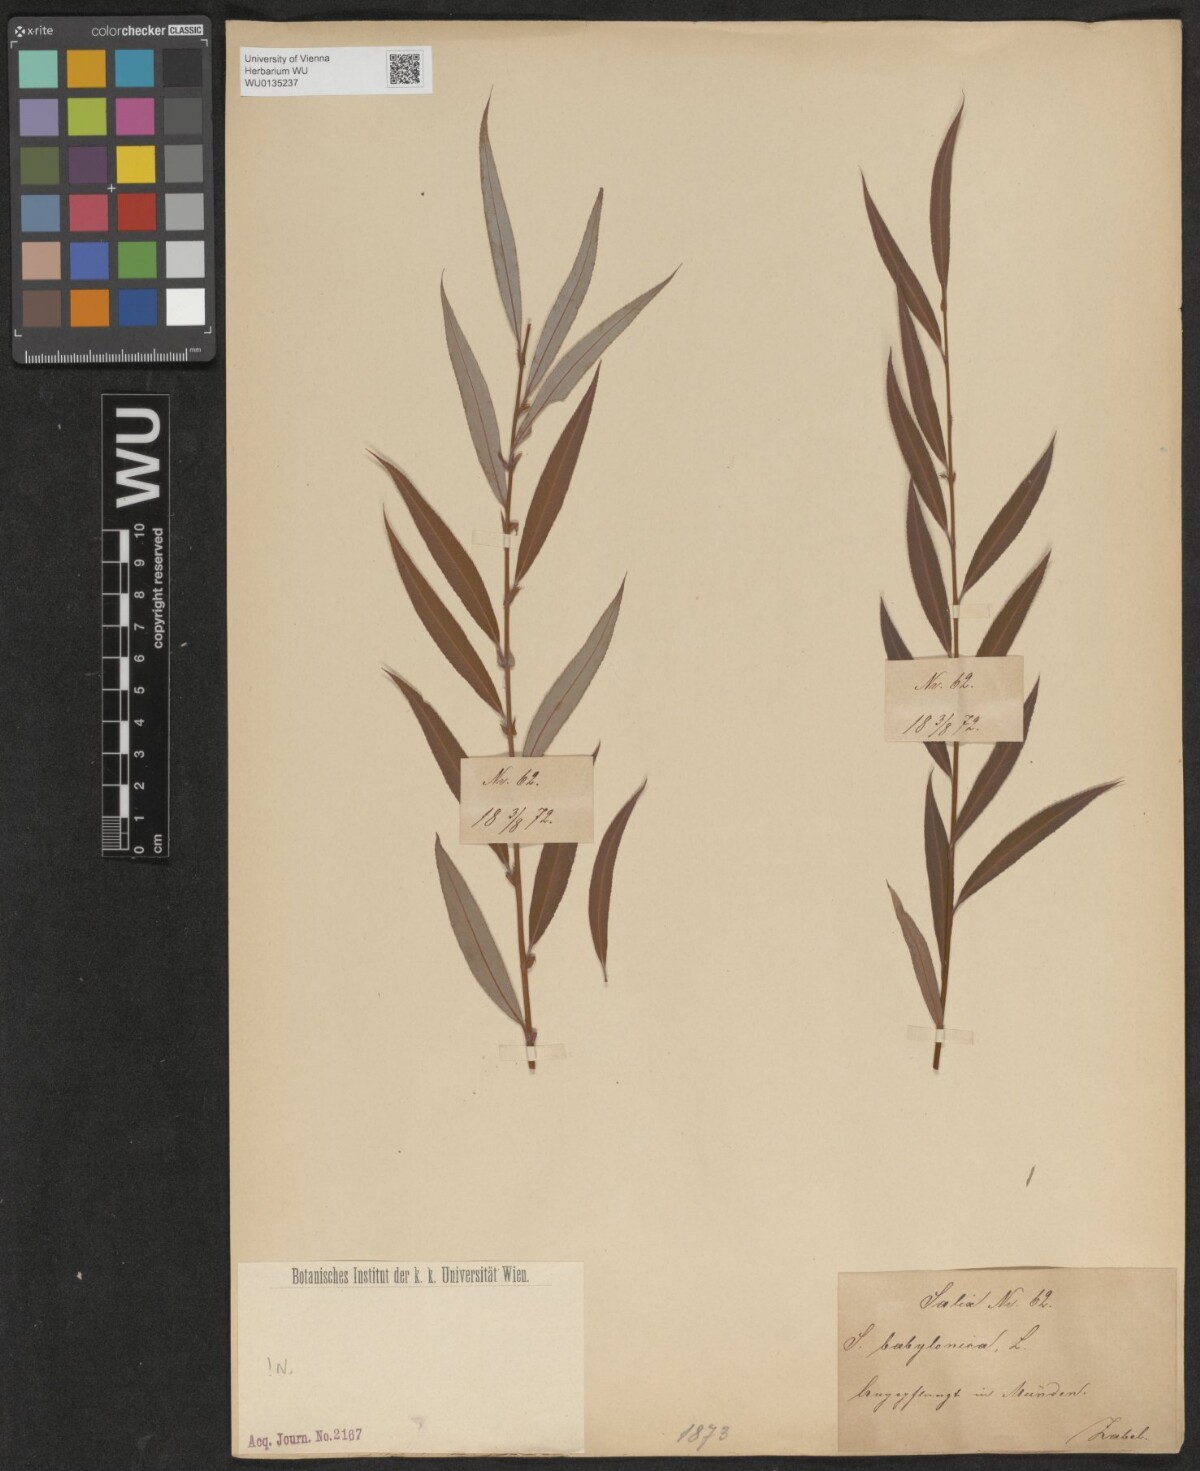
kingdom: Plantae
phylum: Tracheophyta
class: Magnoliopsida
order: Malpighiales
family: Salicaceae
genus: Salix
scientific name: Salix babylonica
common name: Weeping willow
